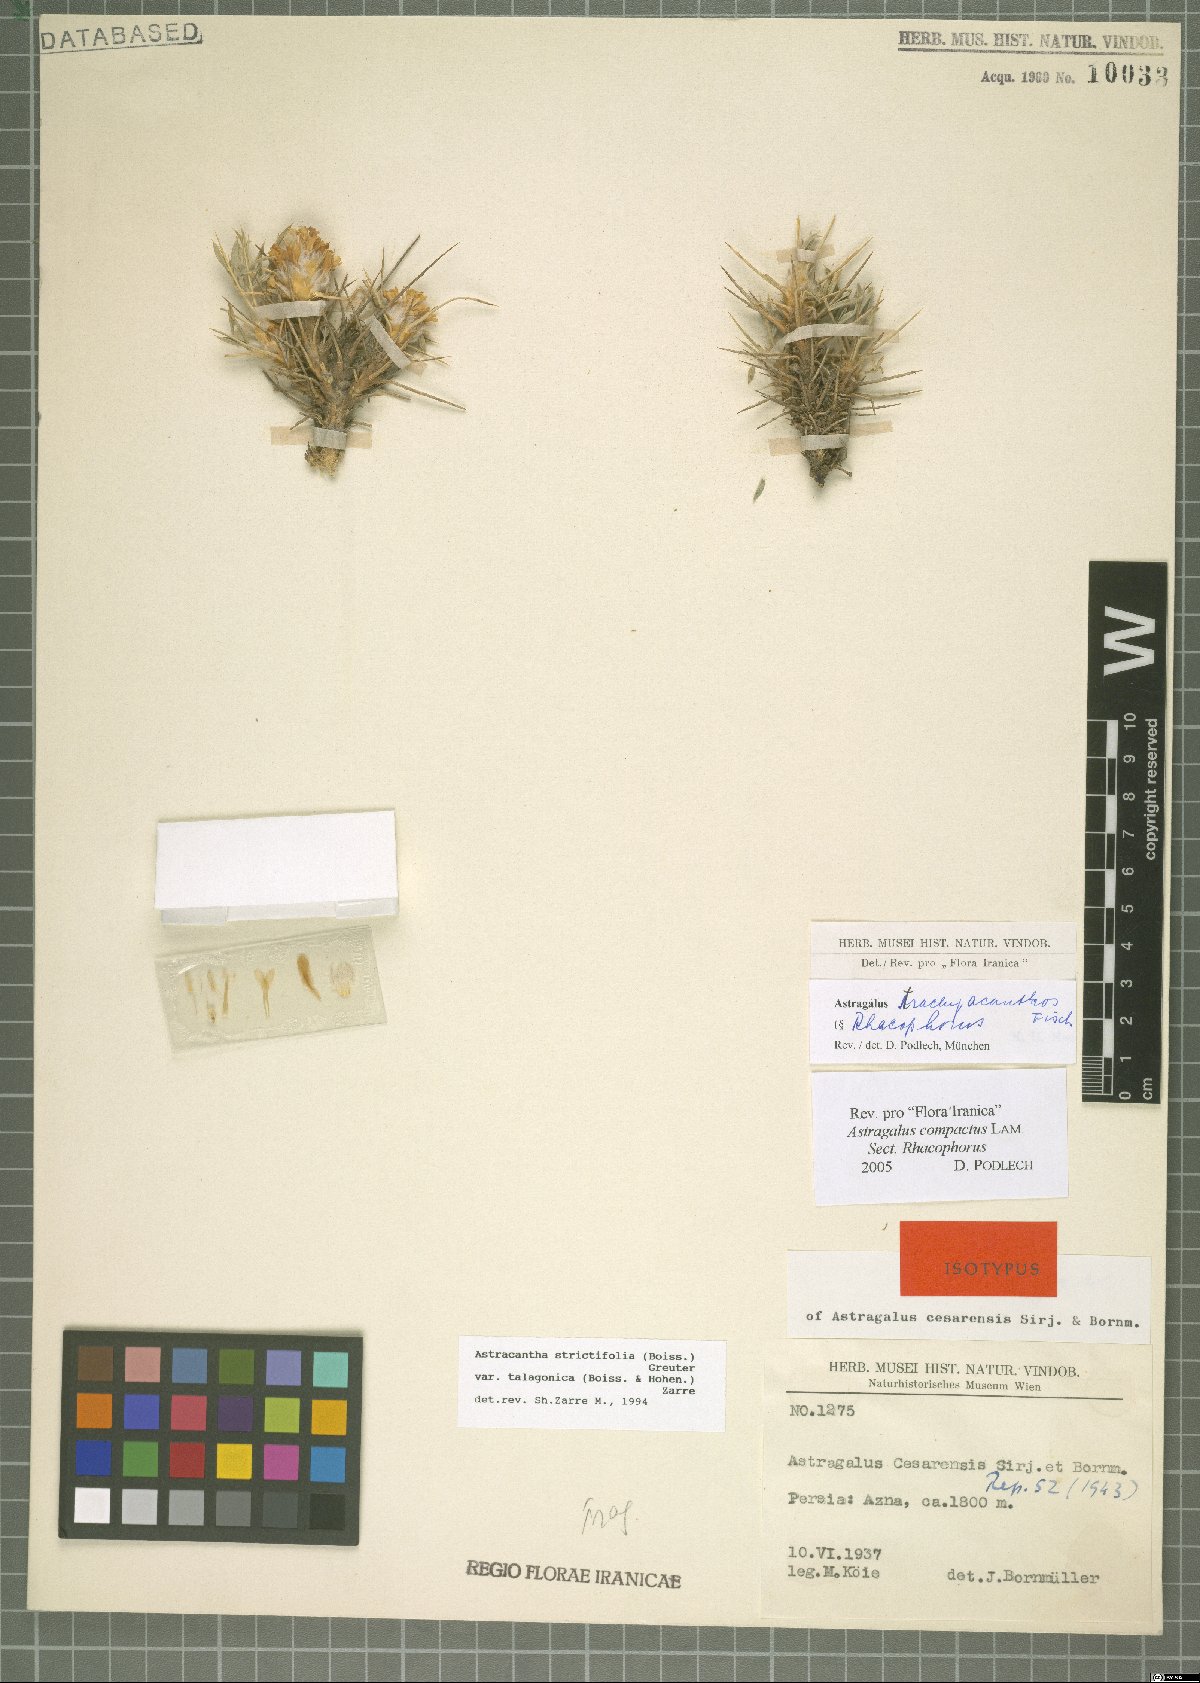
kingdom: Plantae
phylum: Tracheophyta
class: Magnoliopsida
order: Fabales
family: Fabaceae
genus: Astragalus
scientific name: Astragalus trachyacanthos
